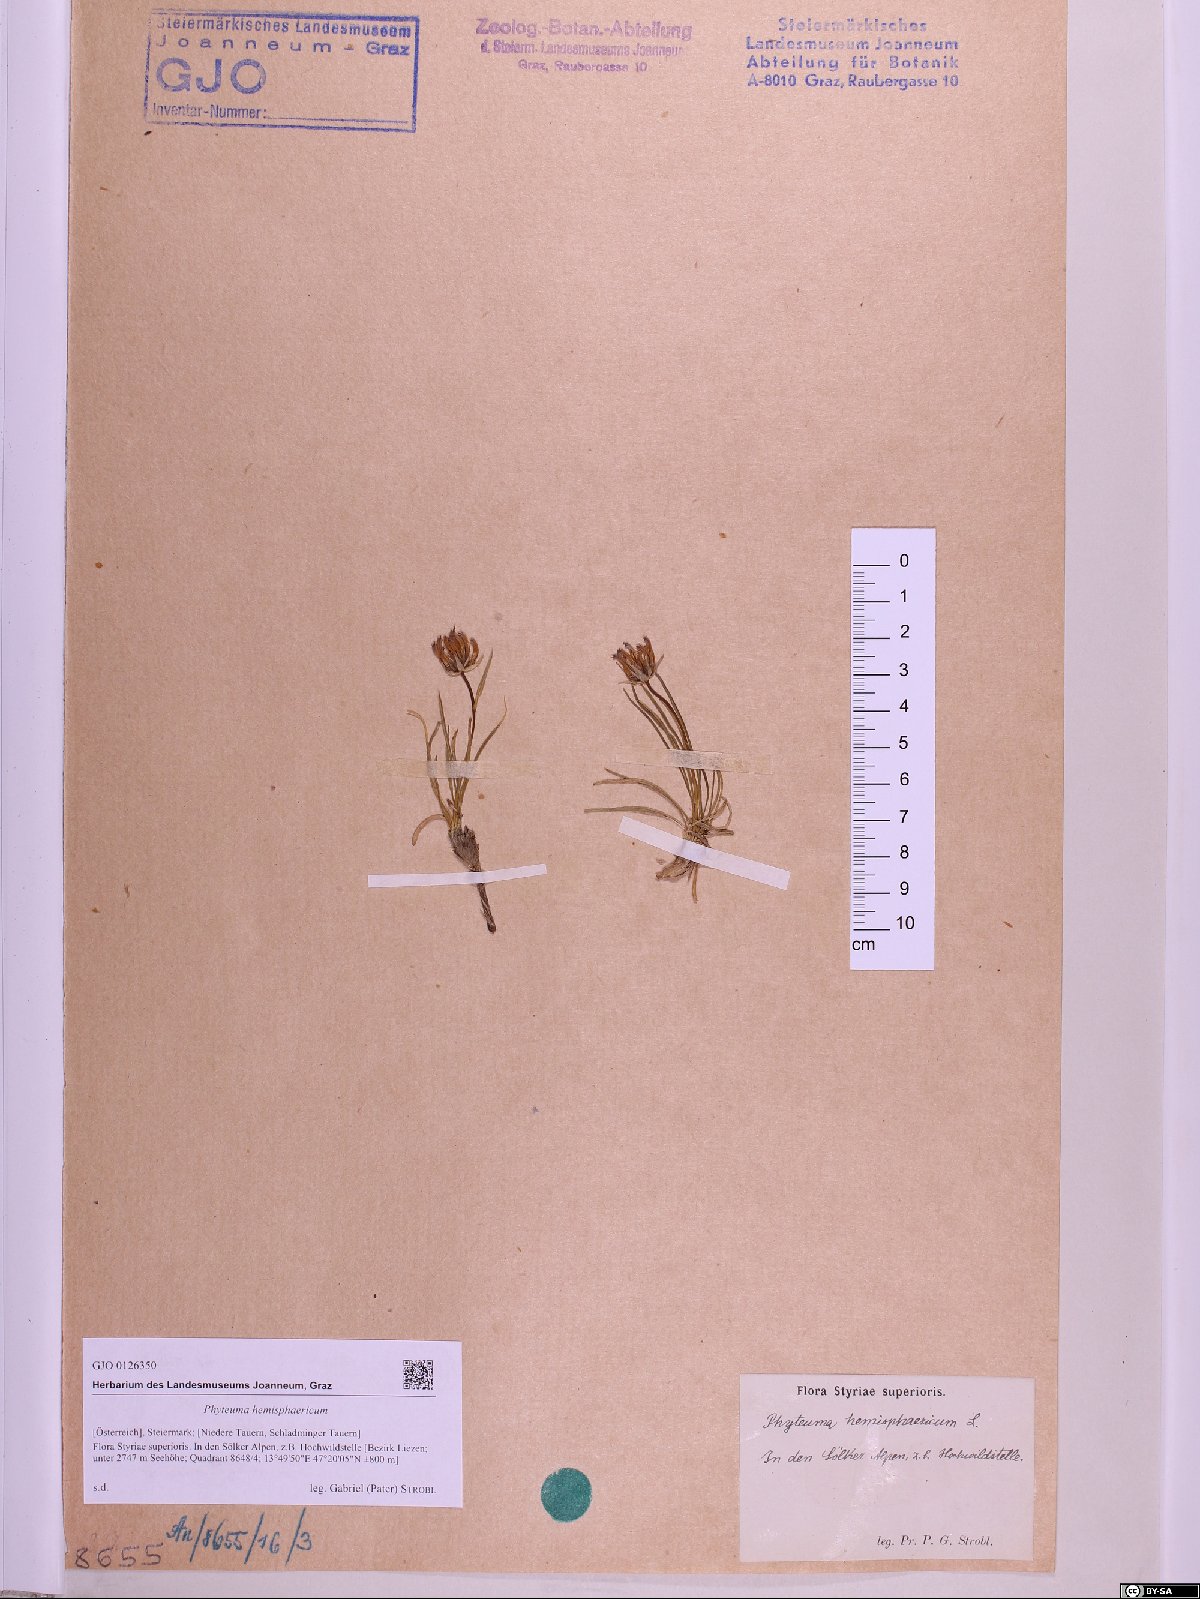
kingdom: Plantae
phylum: Tracheophyta
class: Magnoliopsida
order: Asterales
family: Campanulaceae
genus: Phyteuma
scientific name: Phyteuma hemisphaericum
